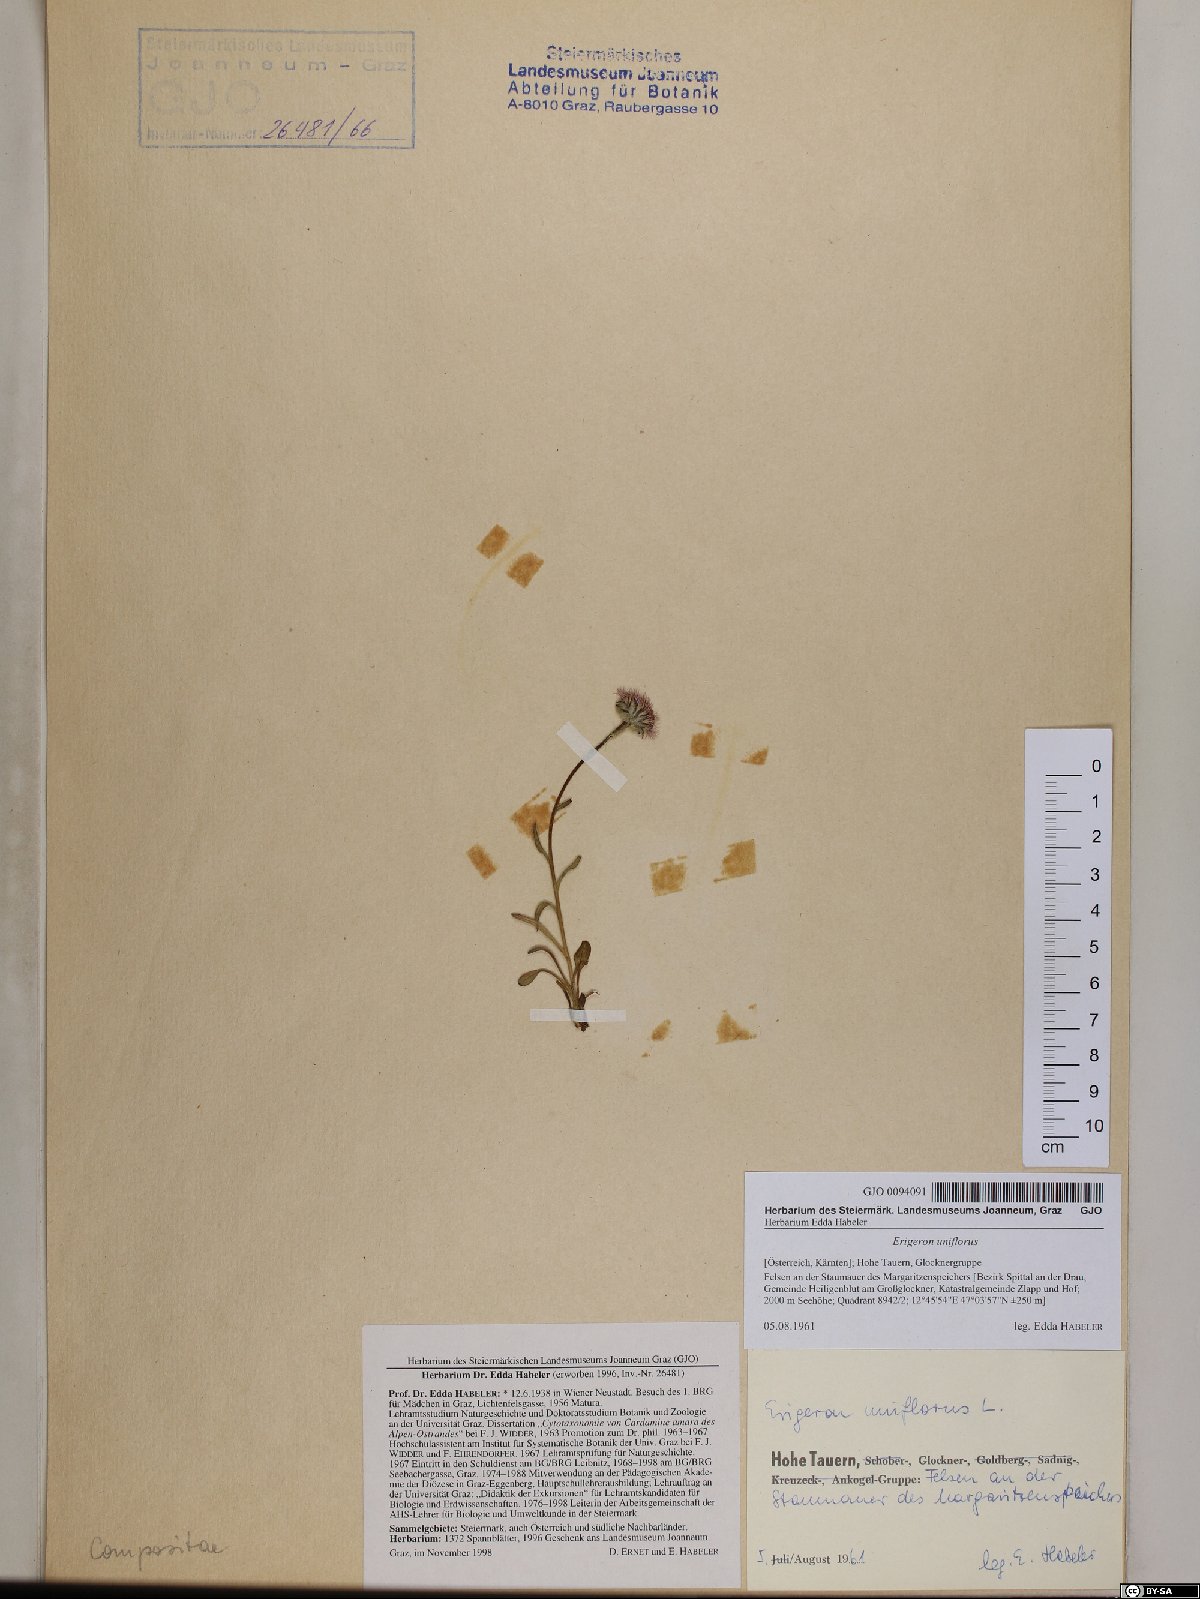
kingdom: Plantae
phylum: Tracheophyta
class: Magnoliopsida
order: Asterales
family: Asteraceae
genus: Erigeron
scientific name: Erigeron uniflorus
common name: Northern daisy
